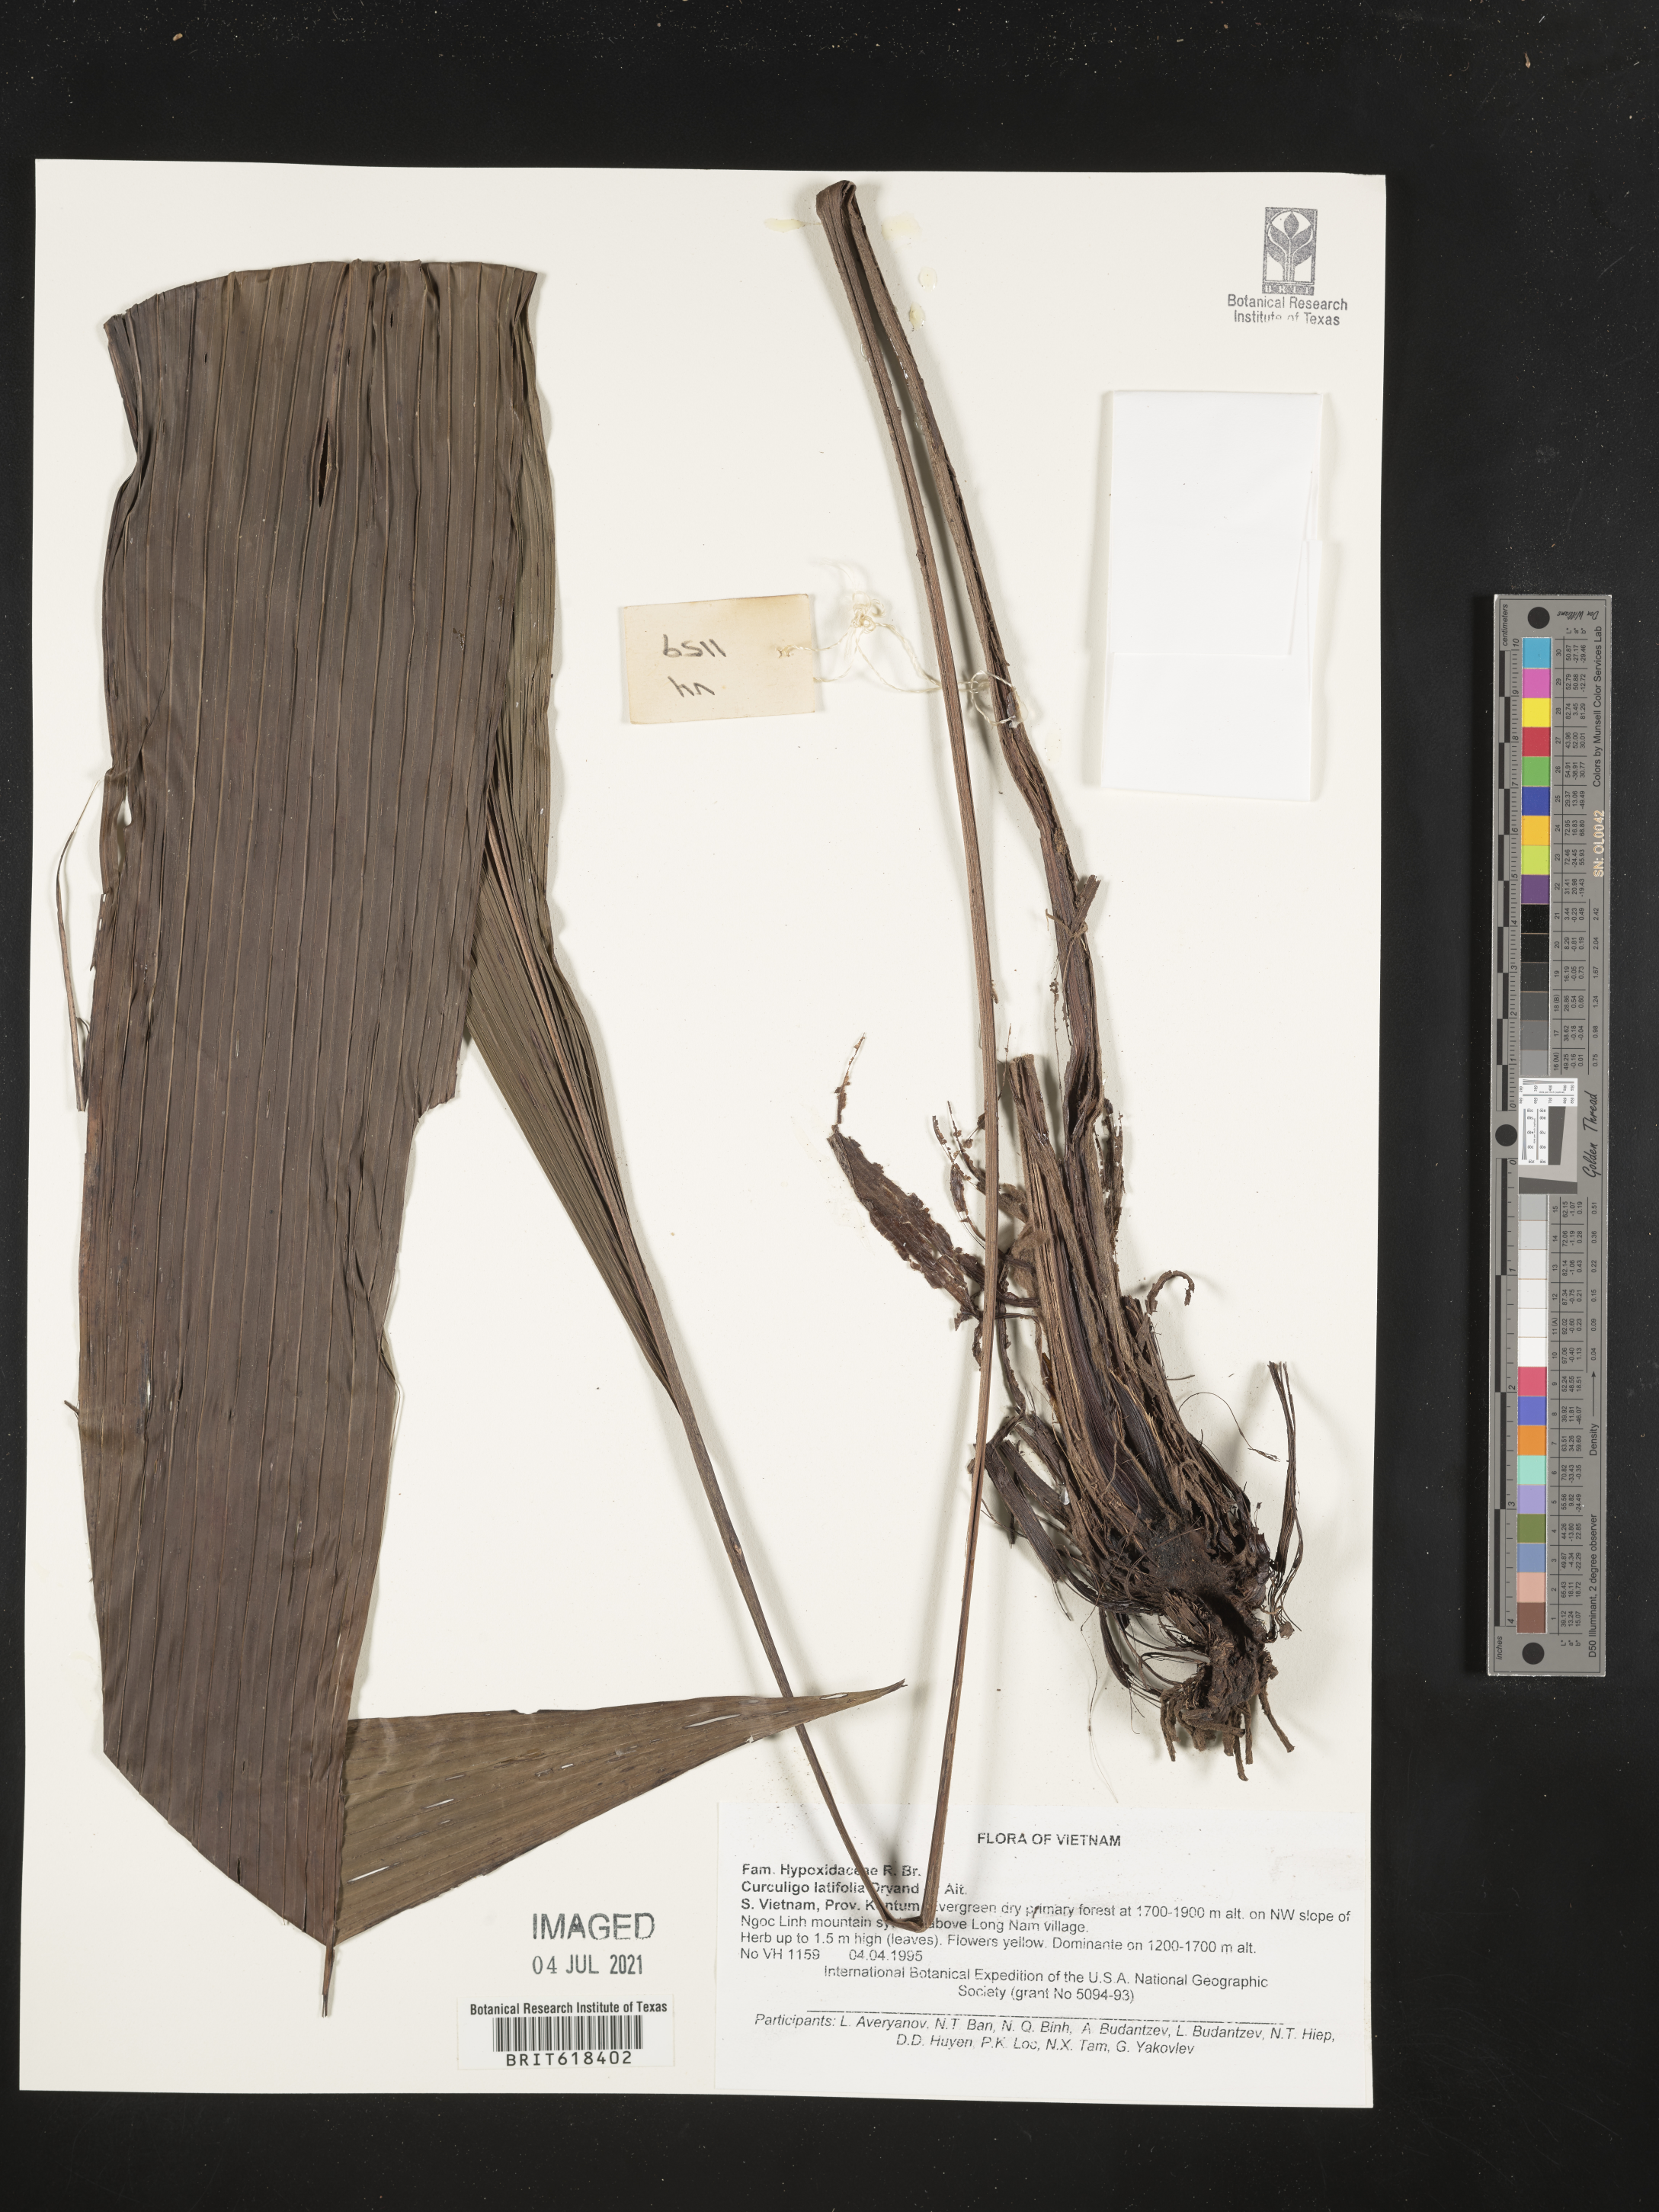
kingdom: Plantae
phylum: Tracheophyta
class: Liliopsida
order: Asparagales
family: Hypoxidaceae
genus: Curculigo
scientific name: Curculigo latifolia
